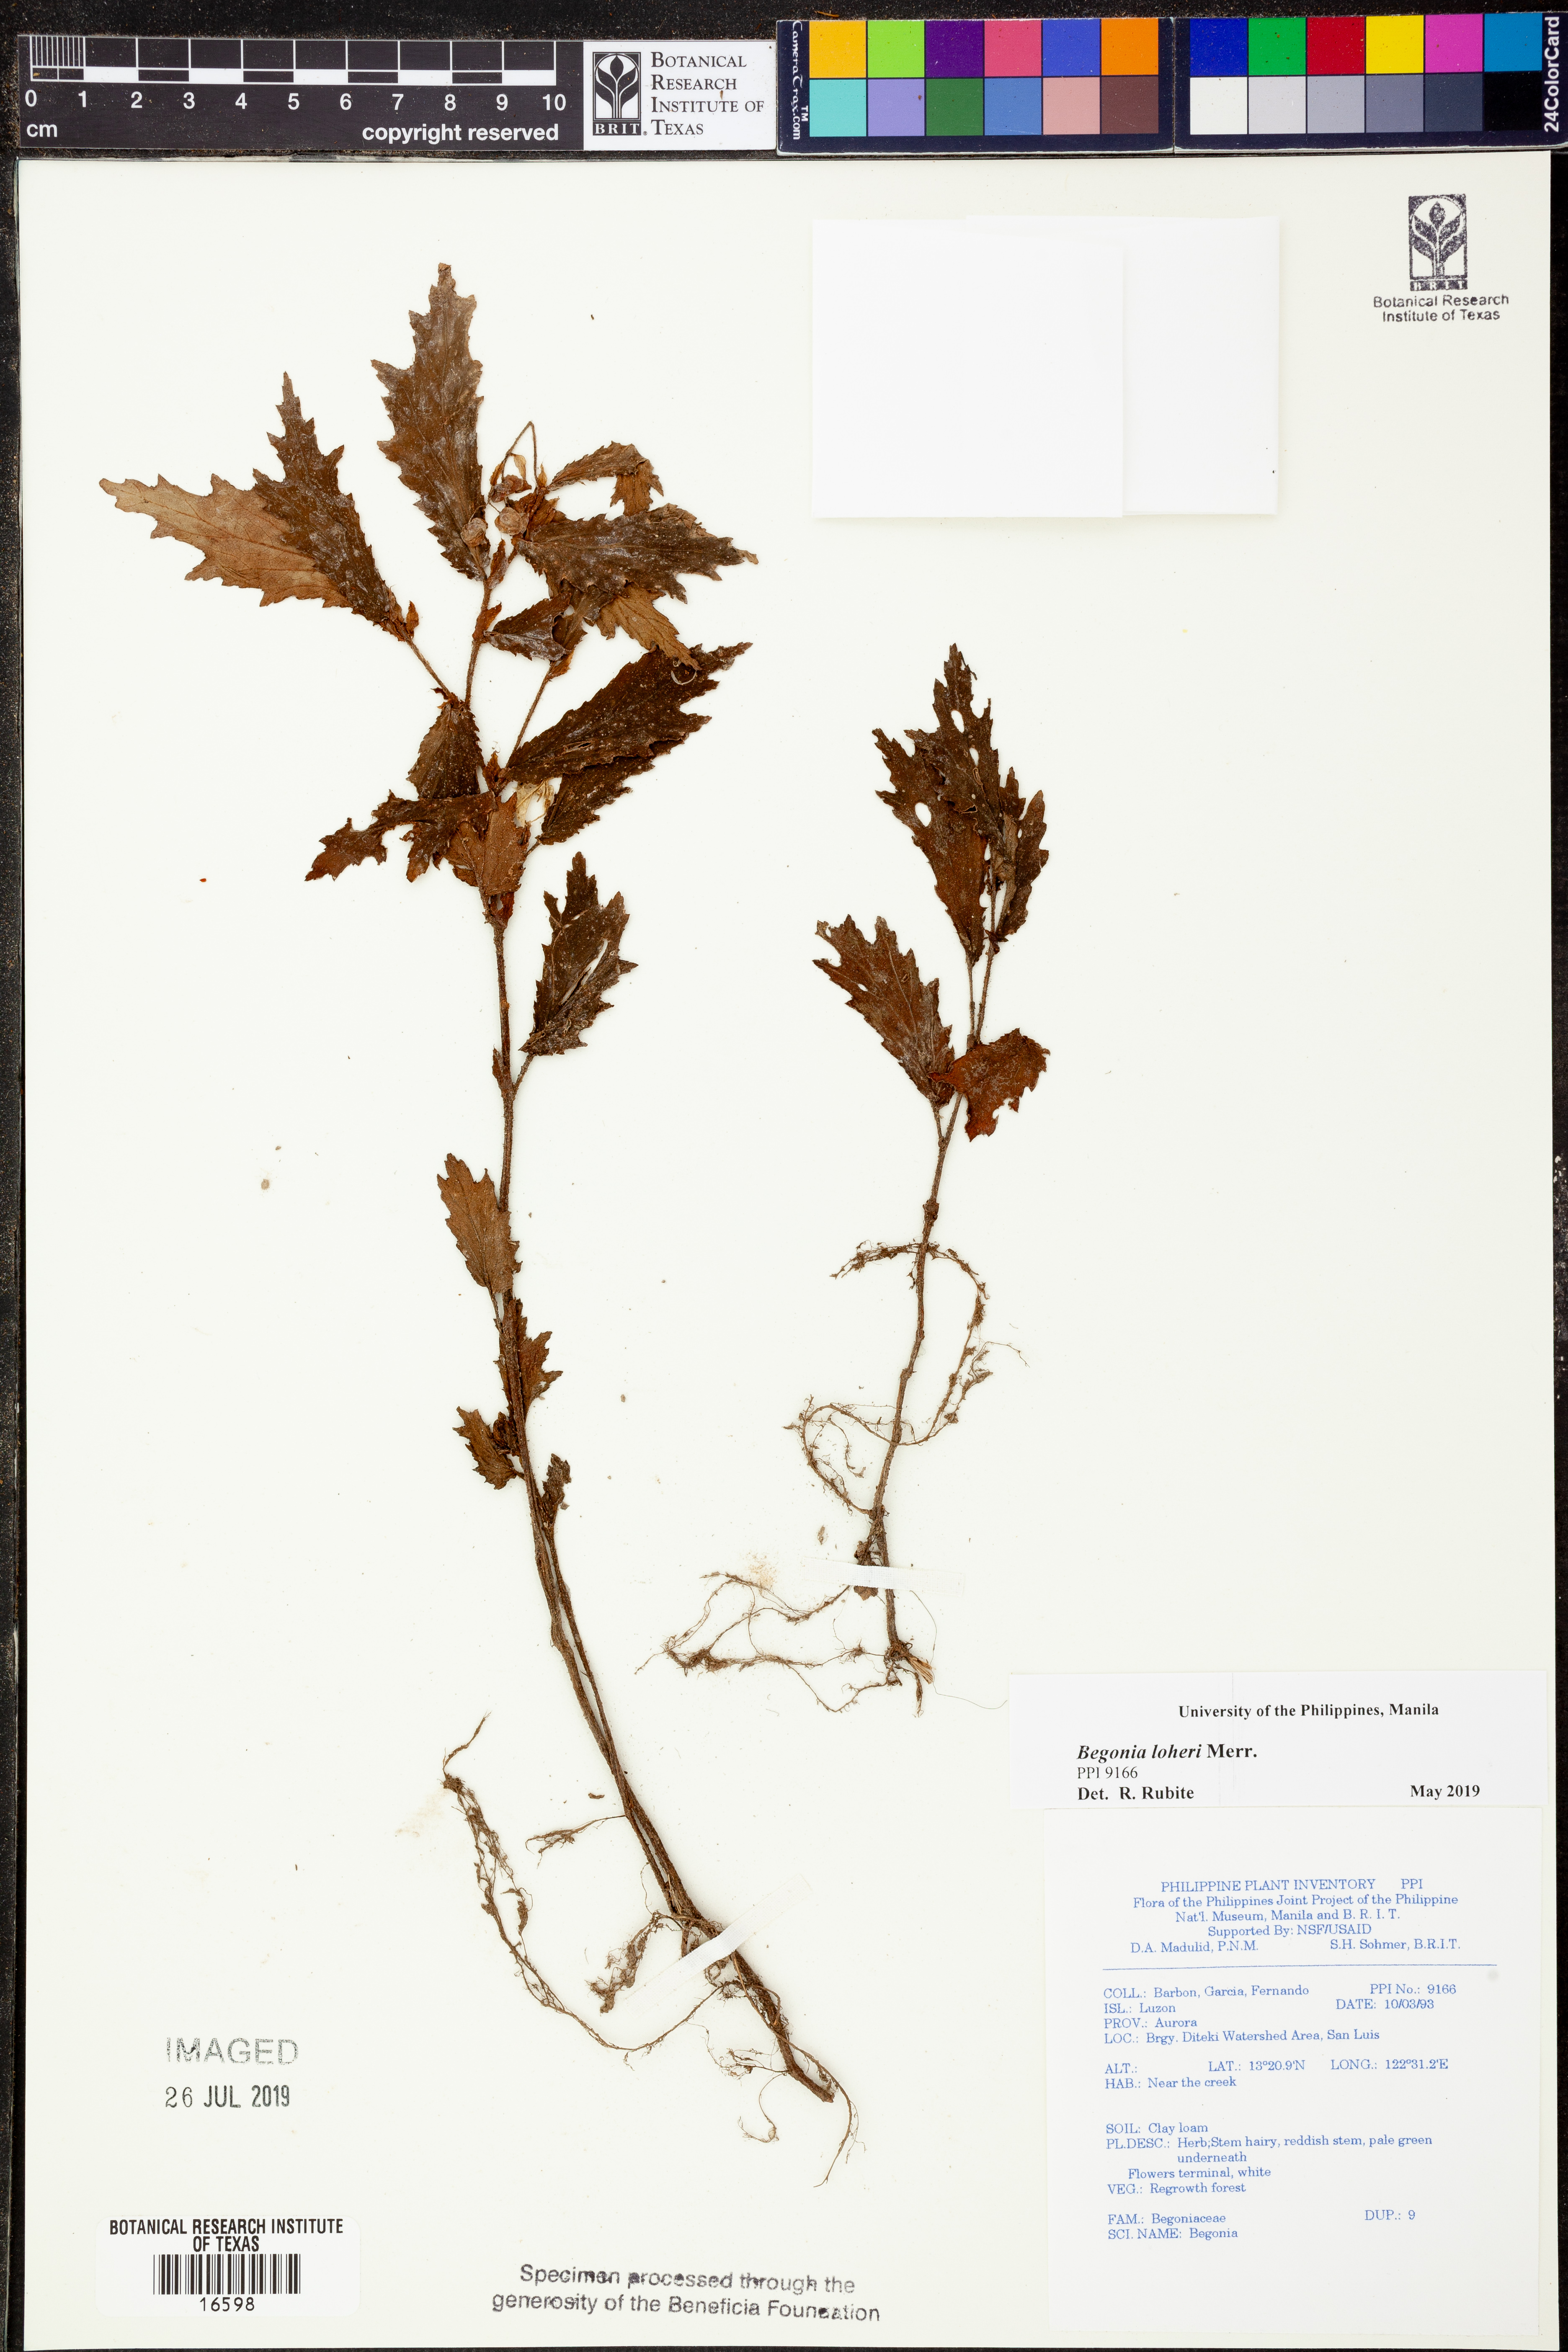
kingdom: Plantae
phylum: Tracheophyta
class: Magnoliopsida
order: Cucurbitales
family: Begoniaceae
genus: Begonia
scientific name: Begonia loheri
